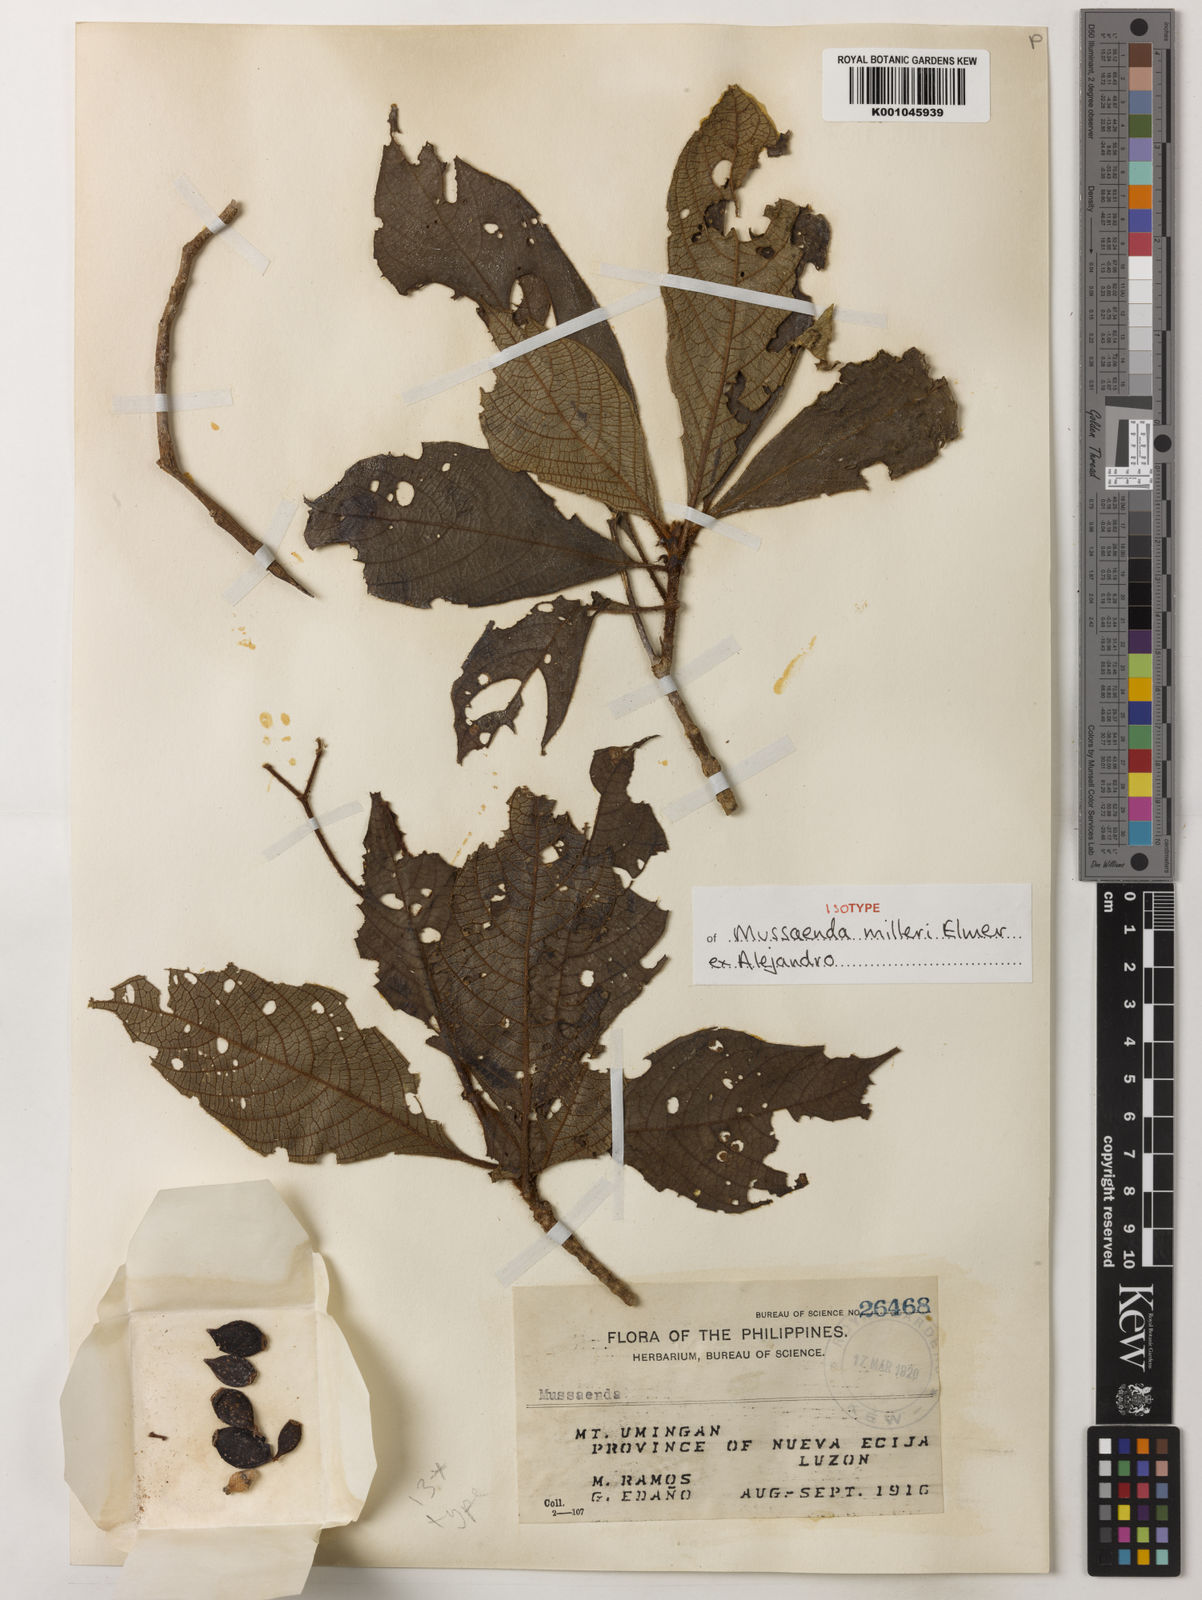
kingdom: Plantae
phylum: Tracheophyta
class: Magnoliopsida
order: Gentianales
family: Rubiaceae
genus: Mussaenda
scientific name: Mussaenda
